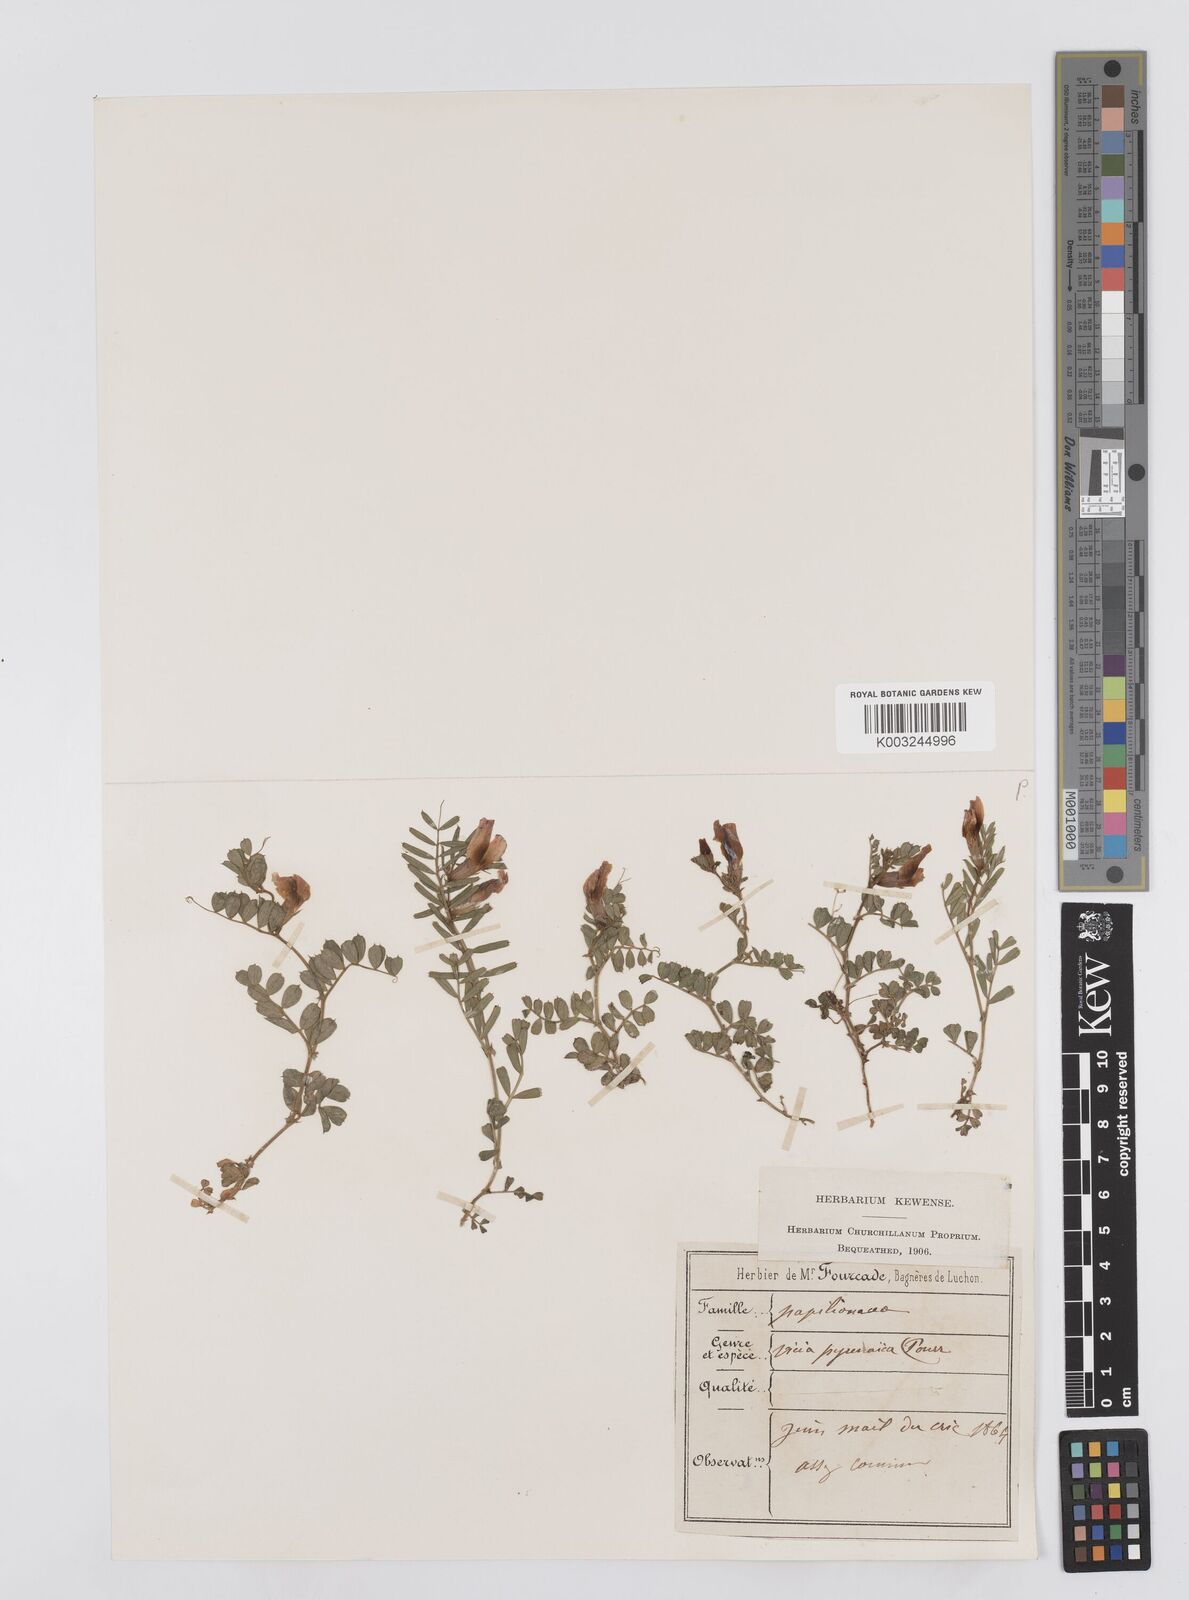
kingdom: Plantae
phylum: Tracheophyta
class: Magnoliopsida
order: Fabales
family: Fabaceae
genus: Vicia
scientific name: Vicia pyrenaica
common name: Pyrenean vetch
